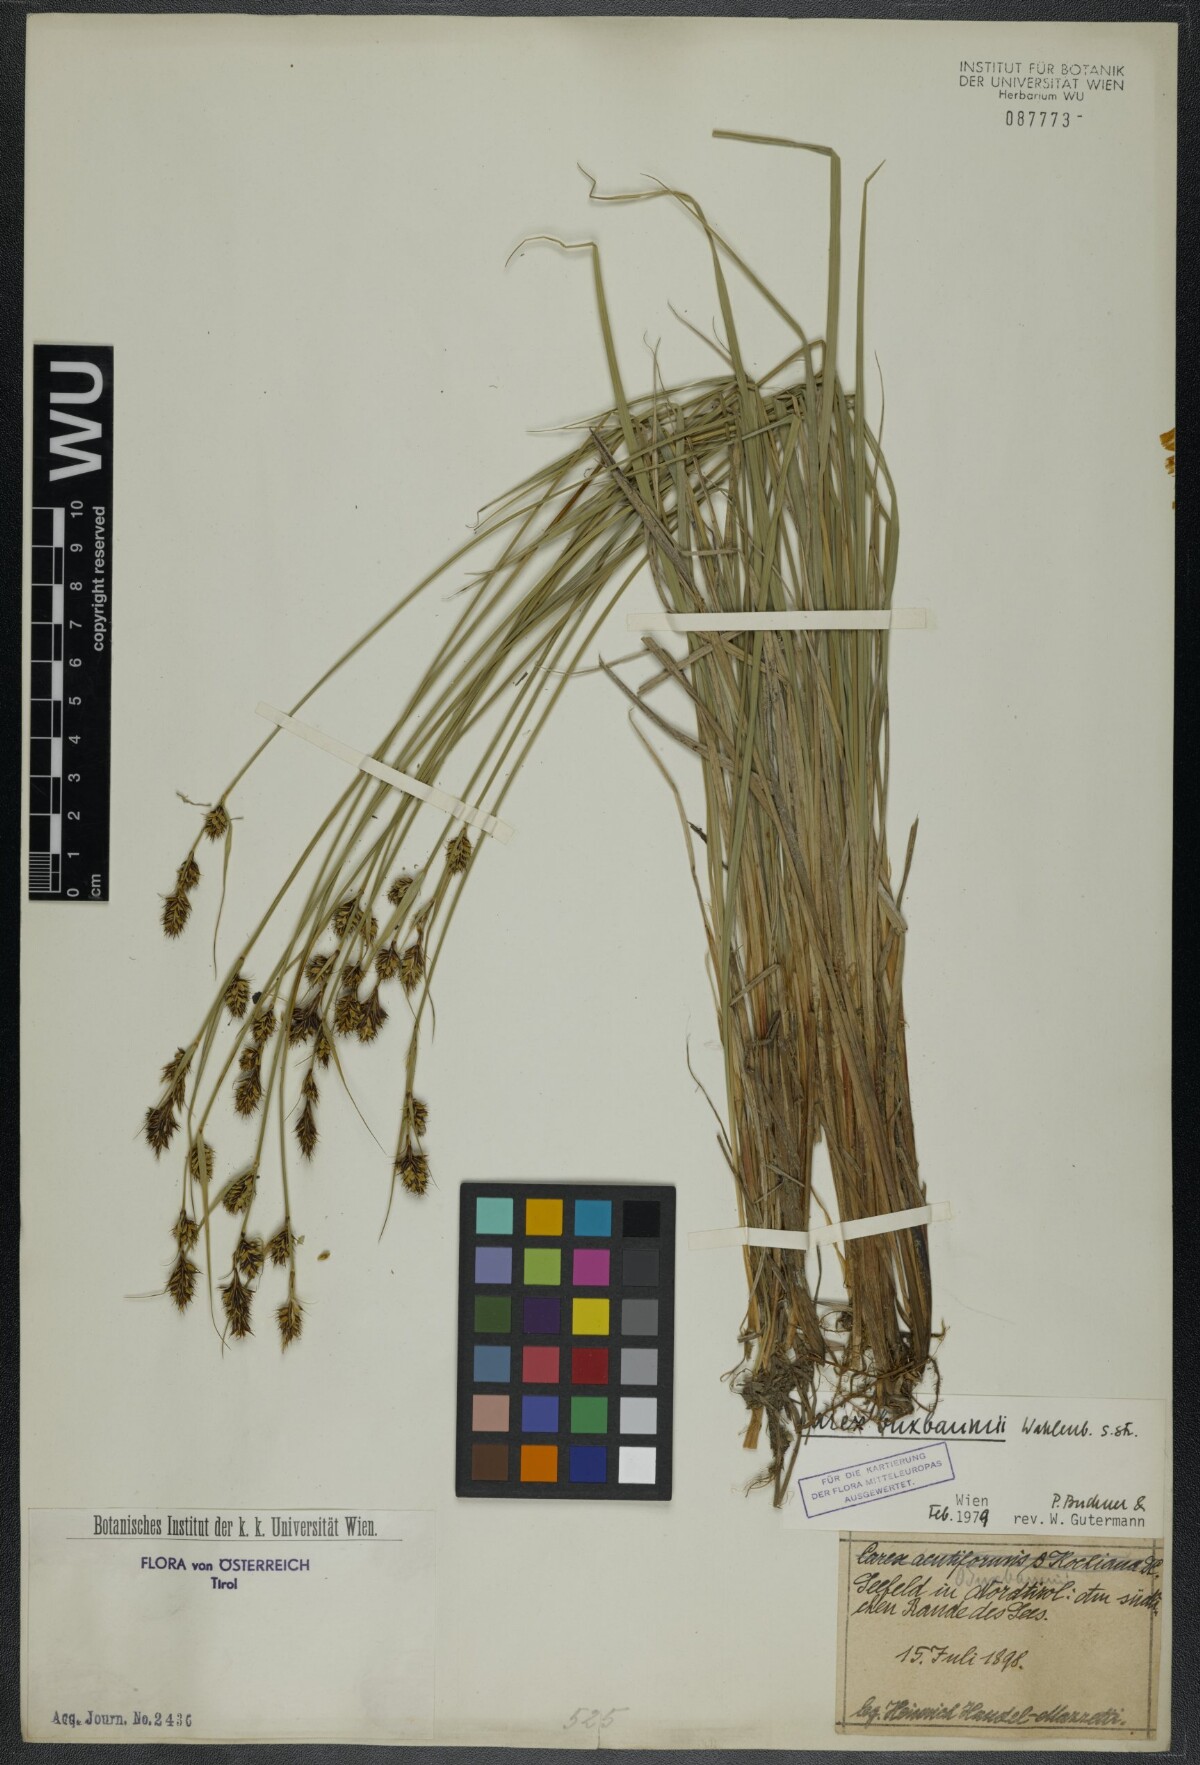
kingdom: Plantae
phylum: Tracheophyta
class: Liliopsida
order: Poales
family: Cyperaceae
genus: Carex
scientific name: Carex buxbaumii
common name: Club sedge
